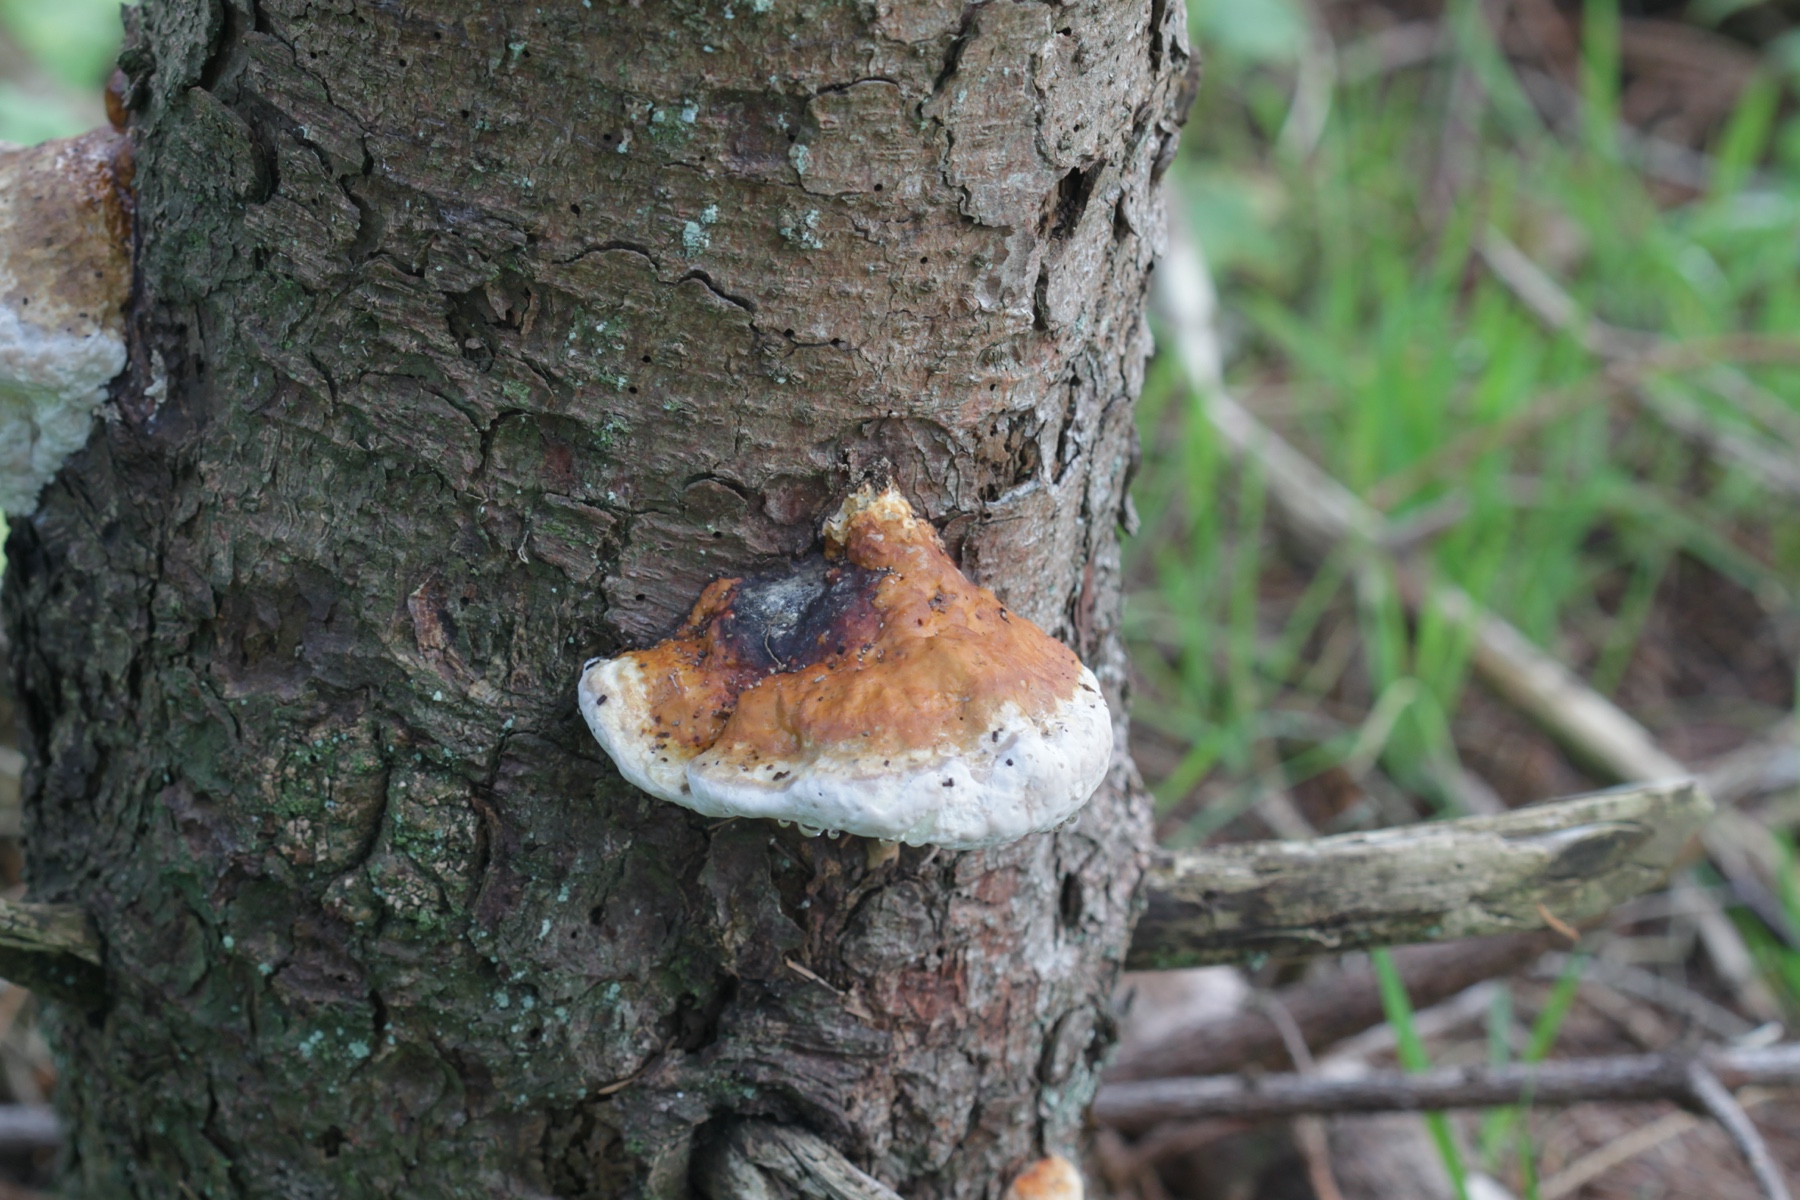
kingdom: Fungi
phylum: Basidiomycota
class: Agaricomycetes
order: Polyporales
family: Fomitopsidaceae
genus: Fomitopsis
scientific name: Fomitopsis pinicola
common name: randbæltet hovporesvamp
